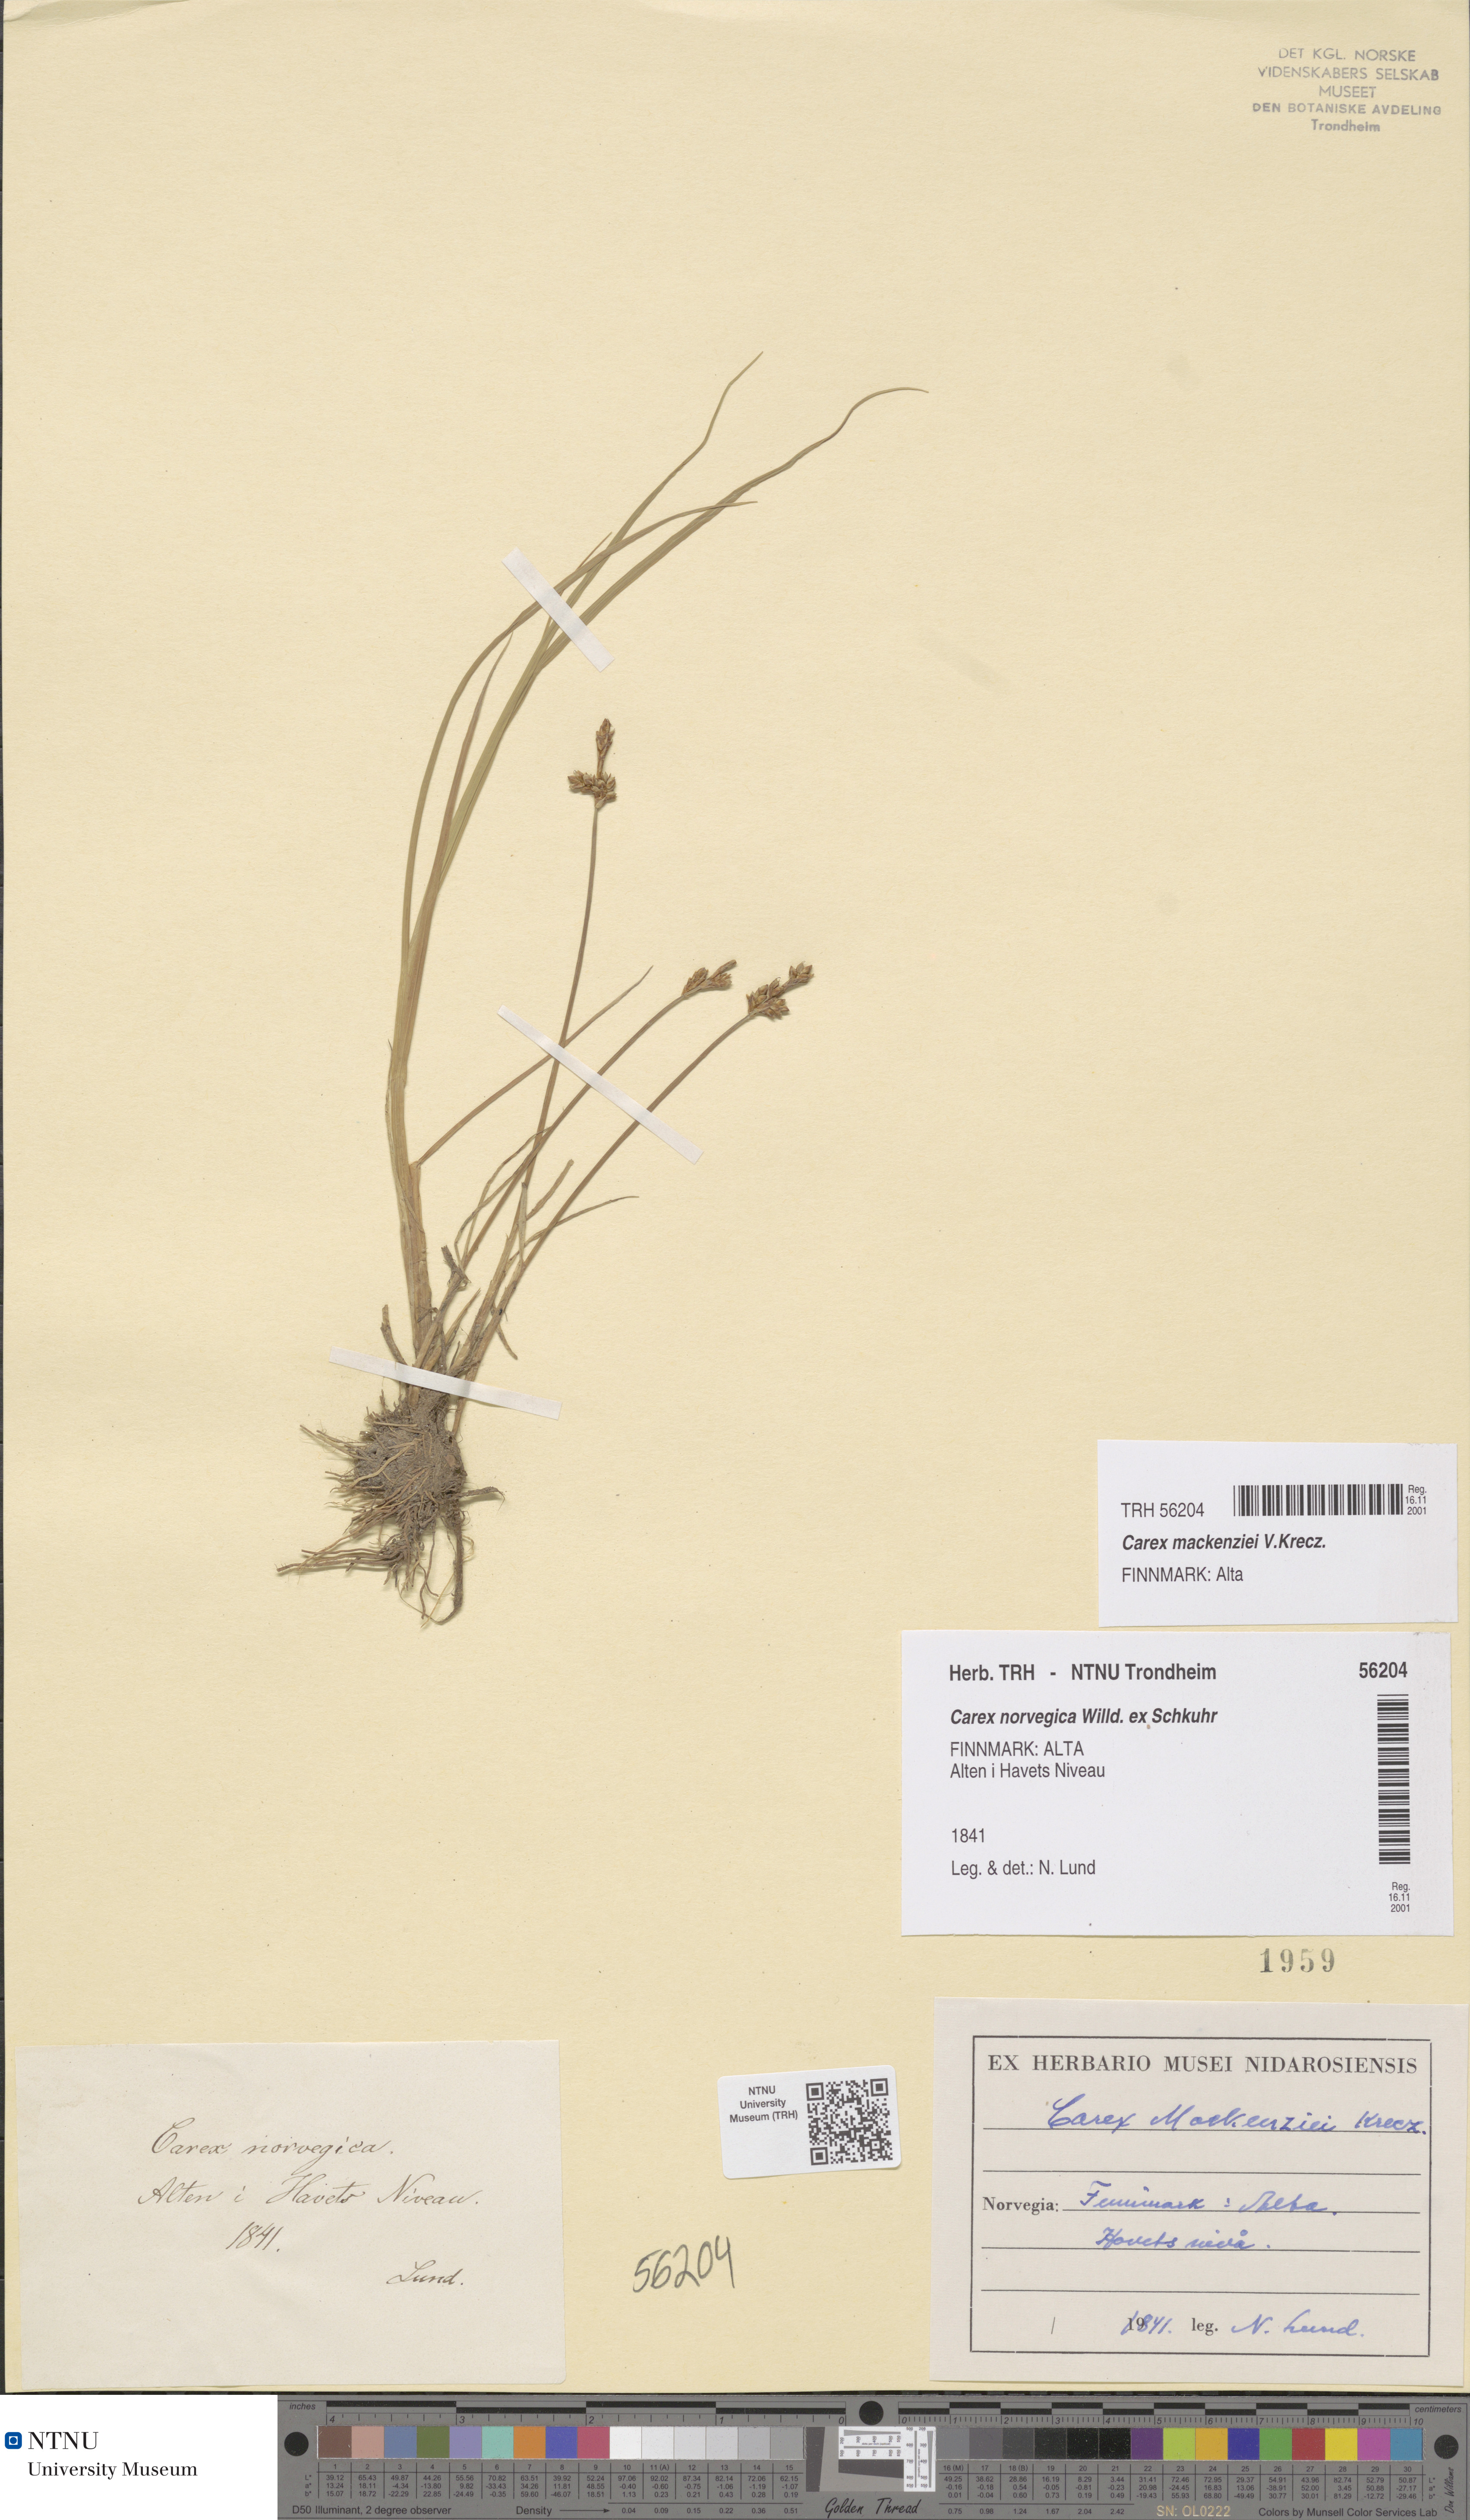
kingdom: Plantae
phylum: Tracheophyta
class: Liliopsida
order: Poales
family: Cyperaceae
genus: Carex
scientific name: Carex mackenziei
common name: Mackenzie's sedge
